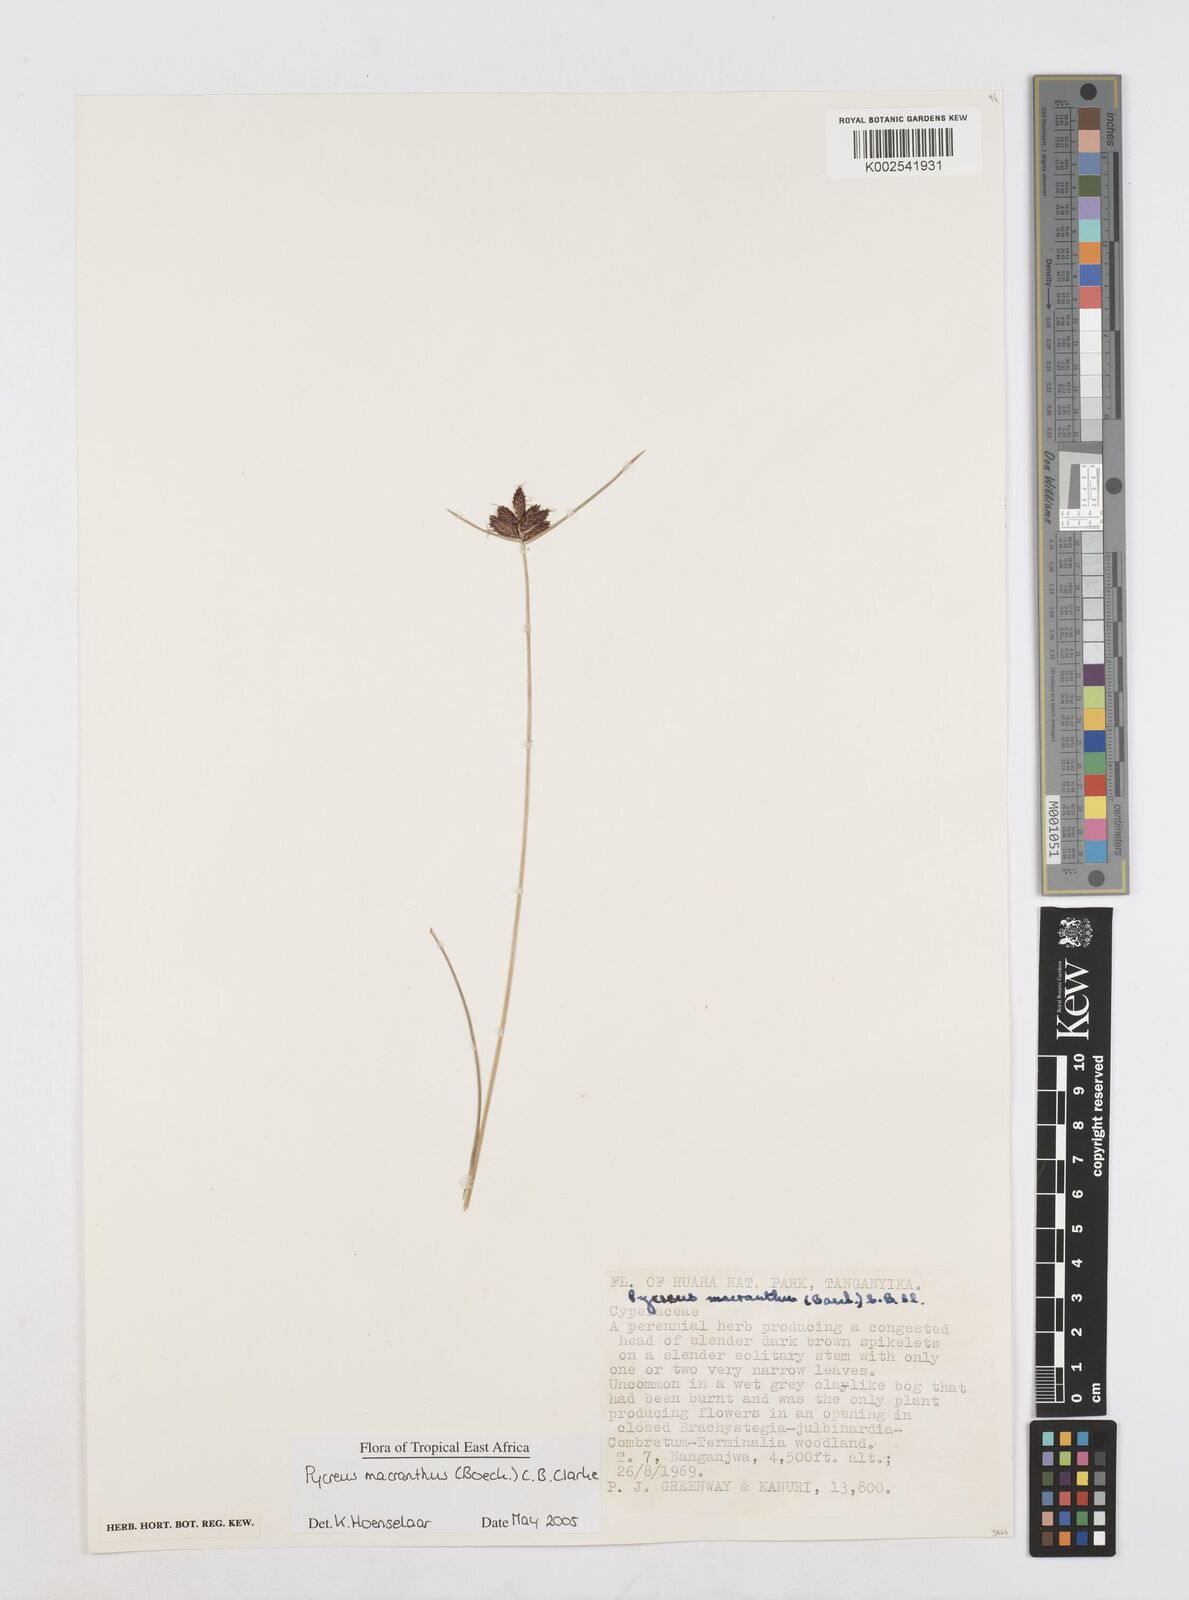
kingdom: Plantae
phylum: Tracheophyta
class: Liliopsida
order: Poales
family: Cyperaceae
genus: Cyperus
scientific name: Cyperus nigricans
